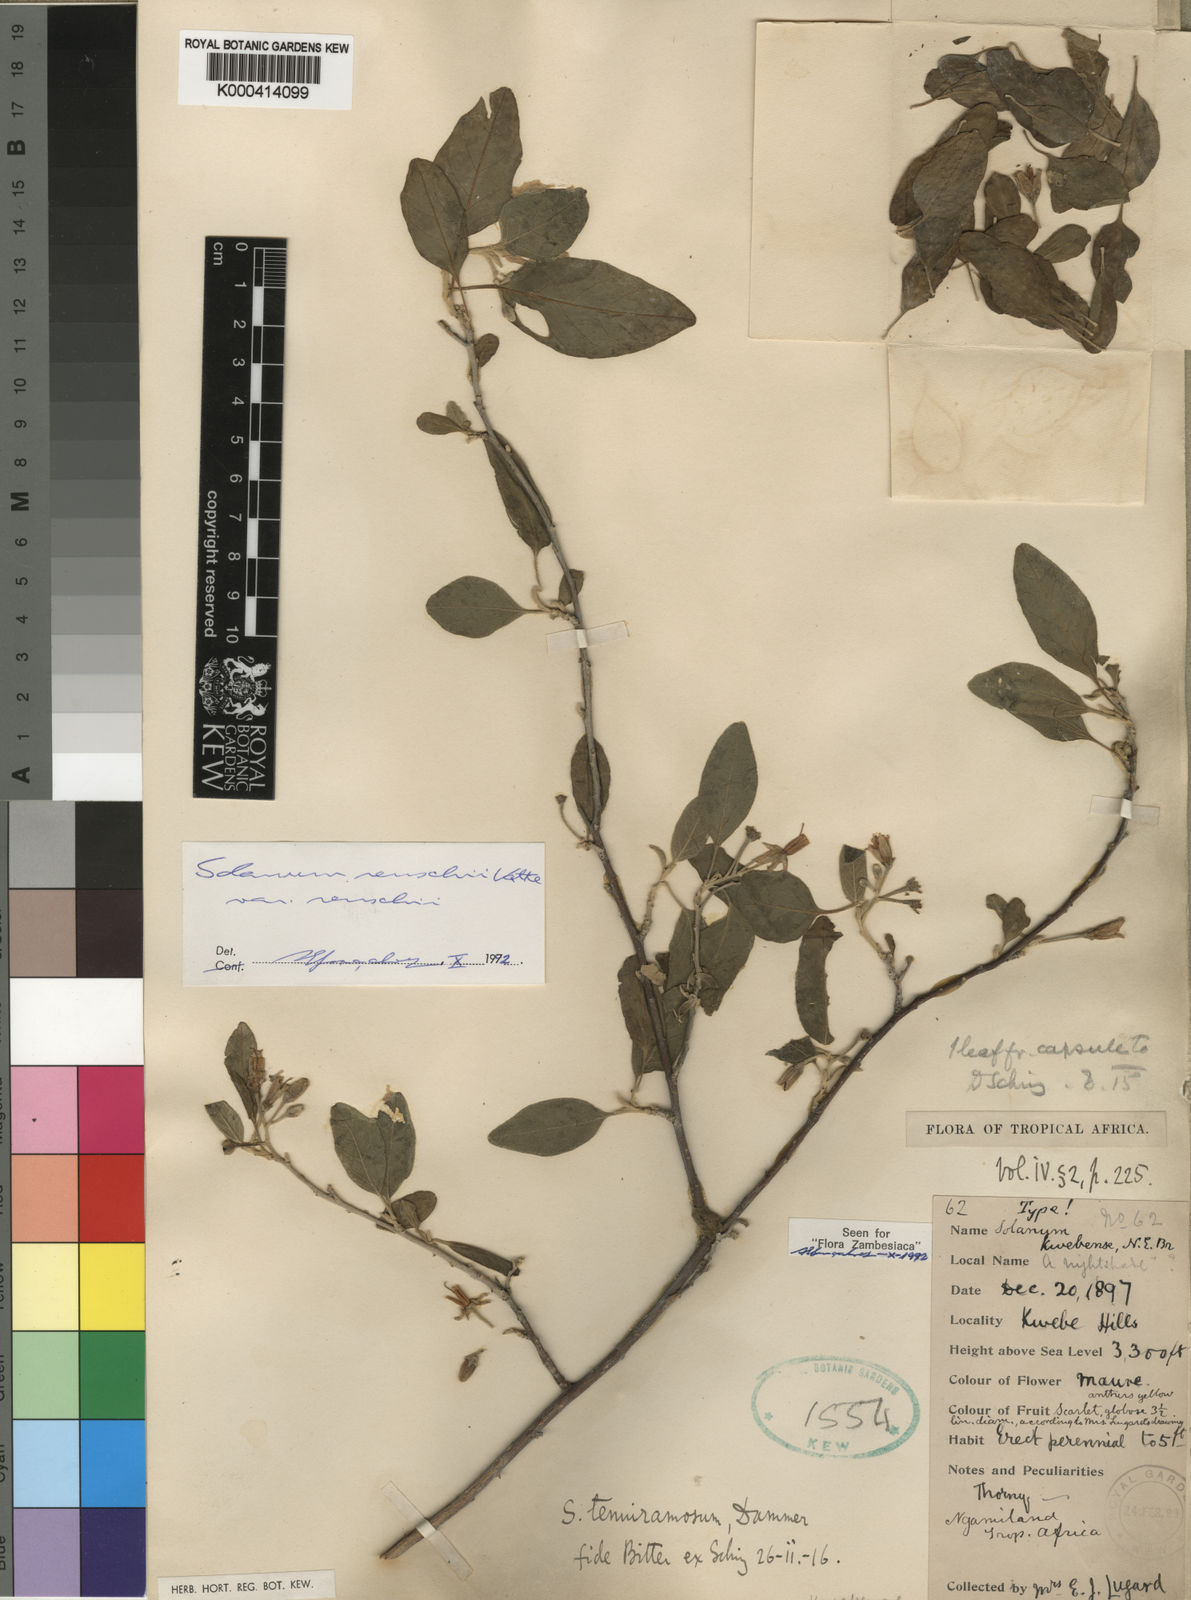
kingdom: Plantae
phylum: Tracheophyta
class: Magnoliopsida
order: Solanales
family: Solanaceae
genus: Solanum
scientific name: Solanum
